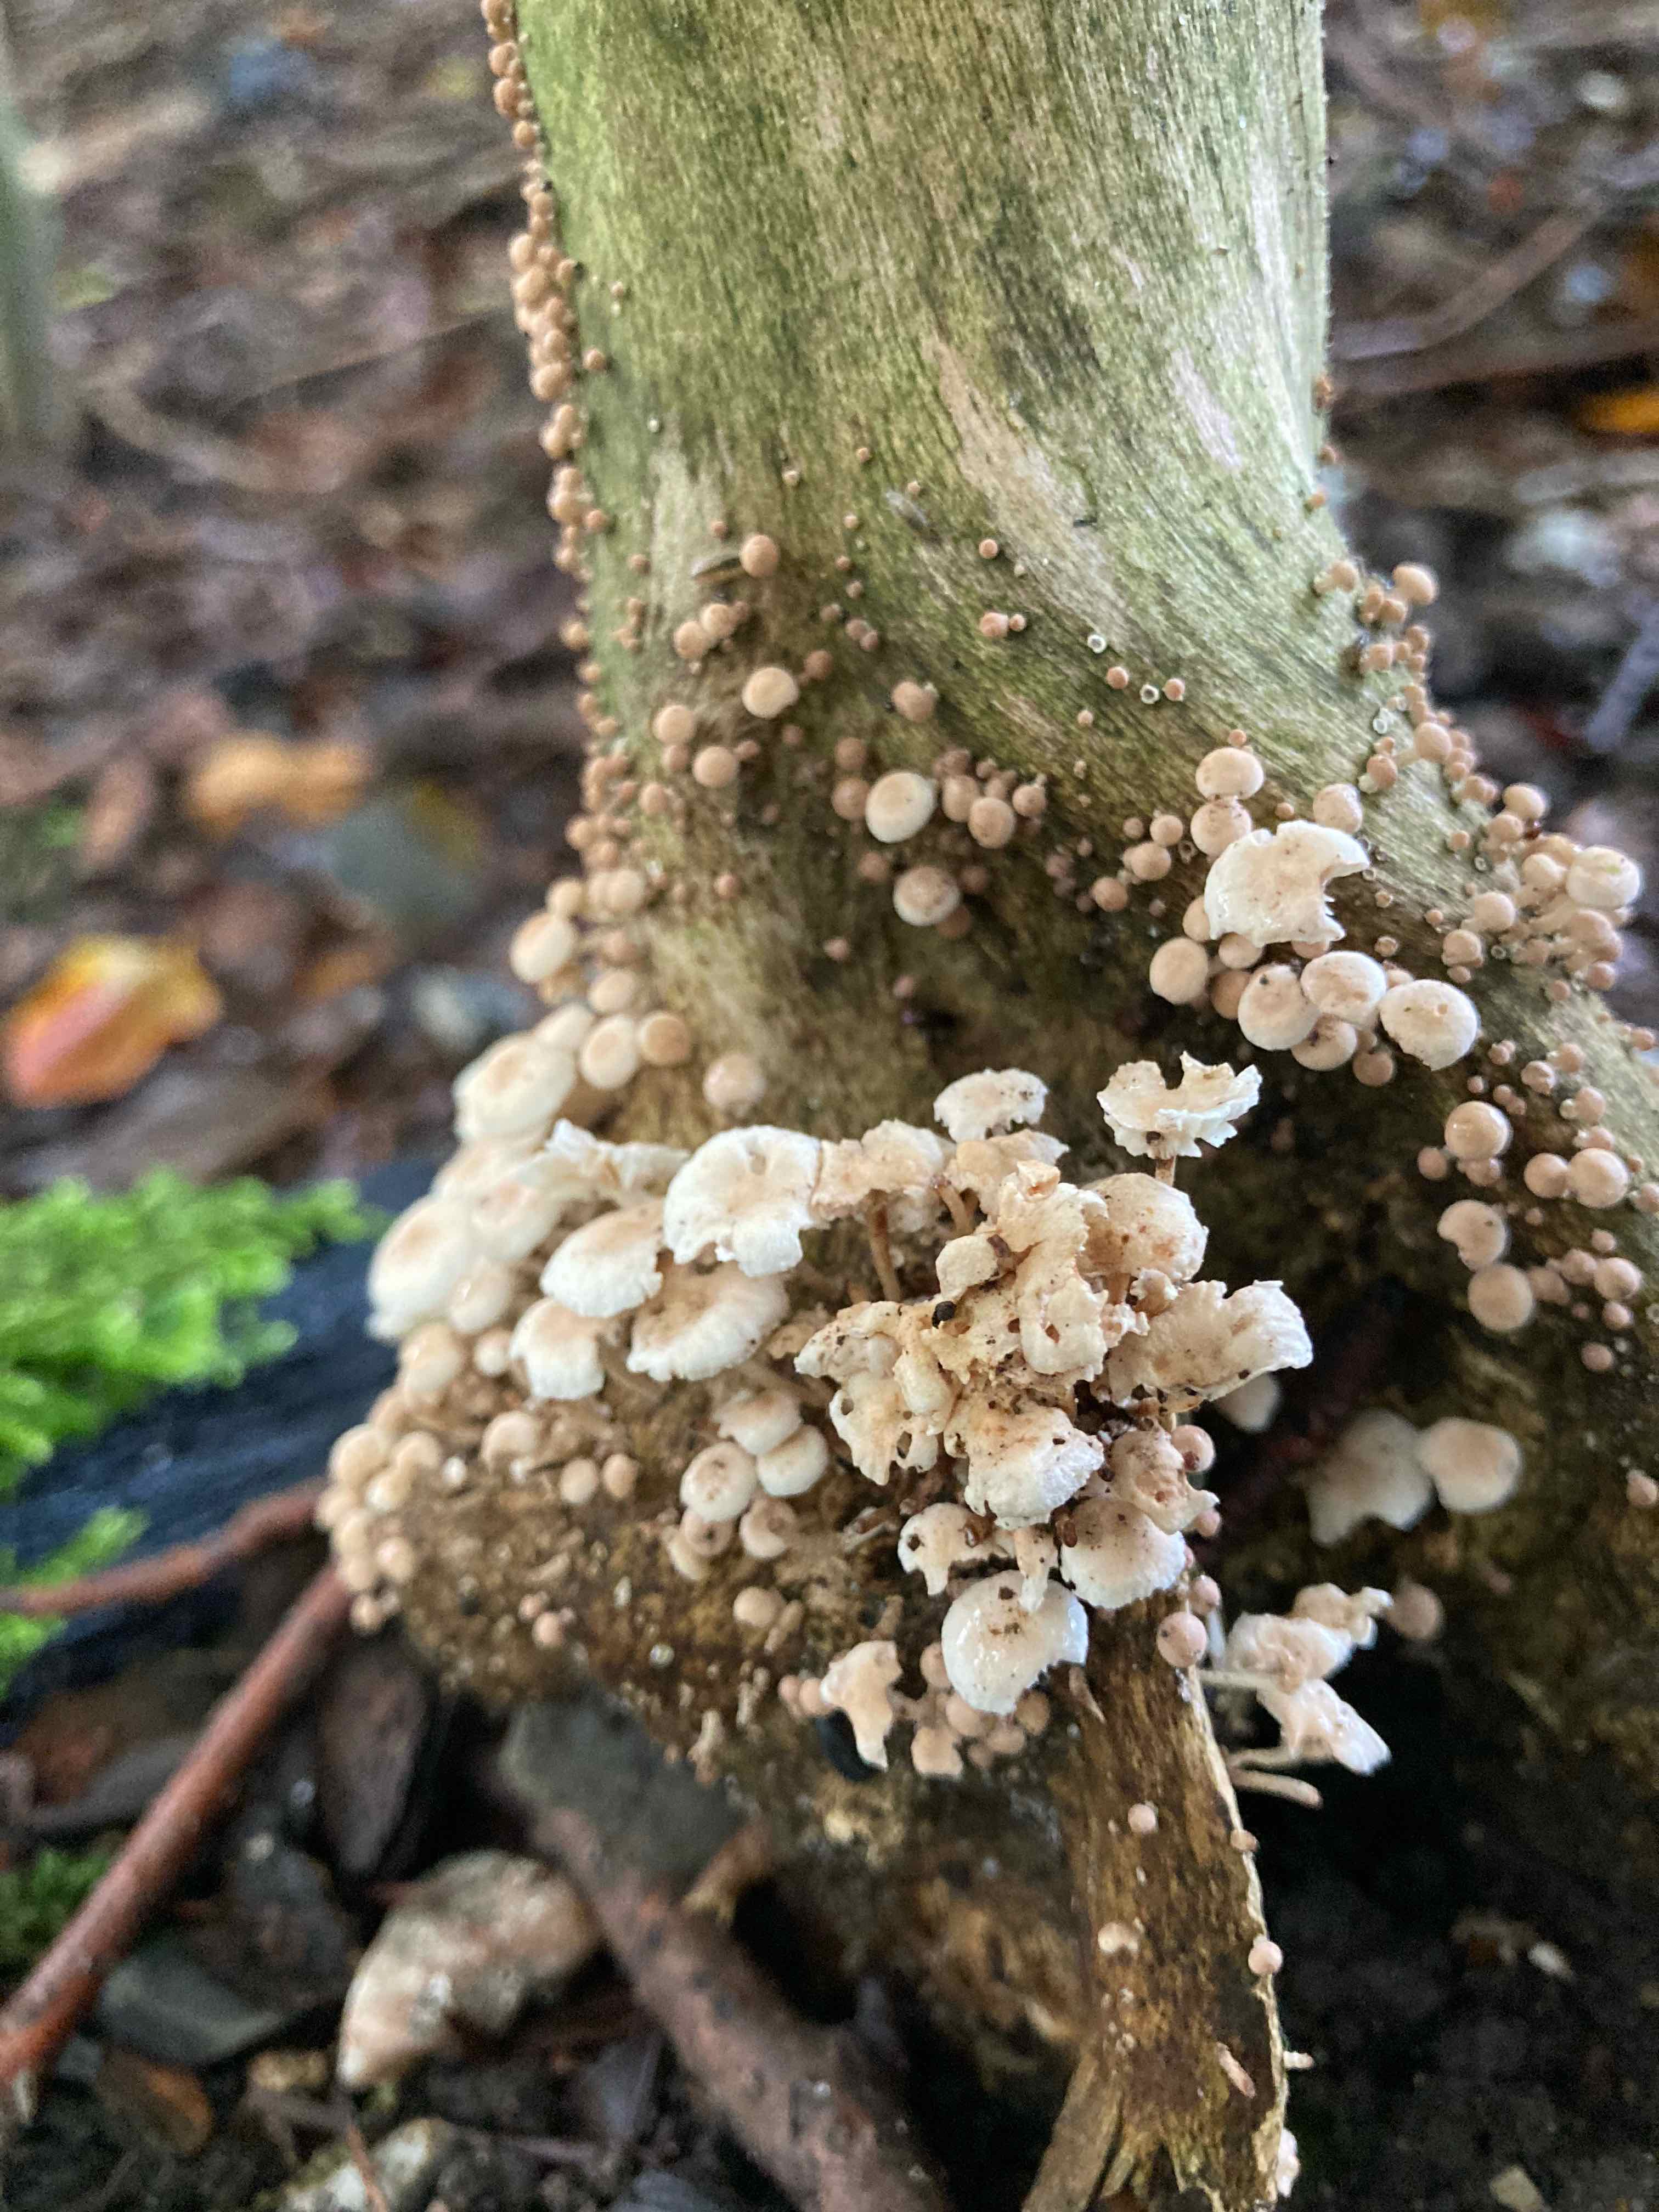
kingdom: Fungi
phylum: Basidiomycota
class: Agaricomycetes
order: Agaricales
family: Omphalotaceae
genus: Collybiopsis
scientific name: Collybiopsis ramealis
